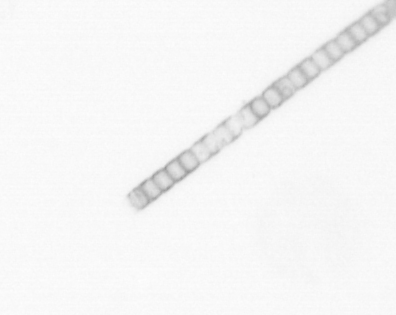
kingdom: Chromista
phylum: Ochrophyta
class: Bacillariophyceae
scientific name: Bacillariophyceae
